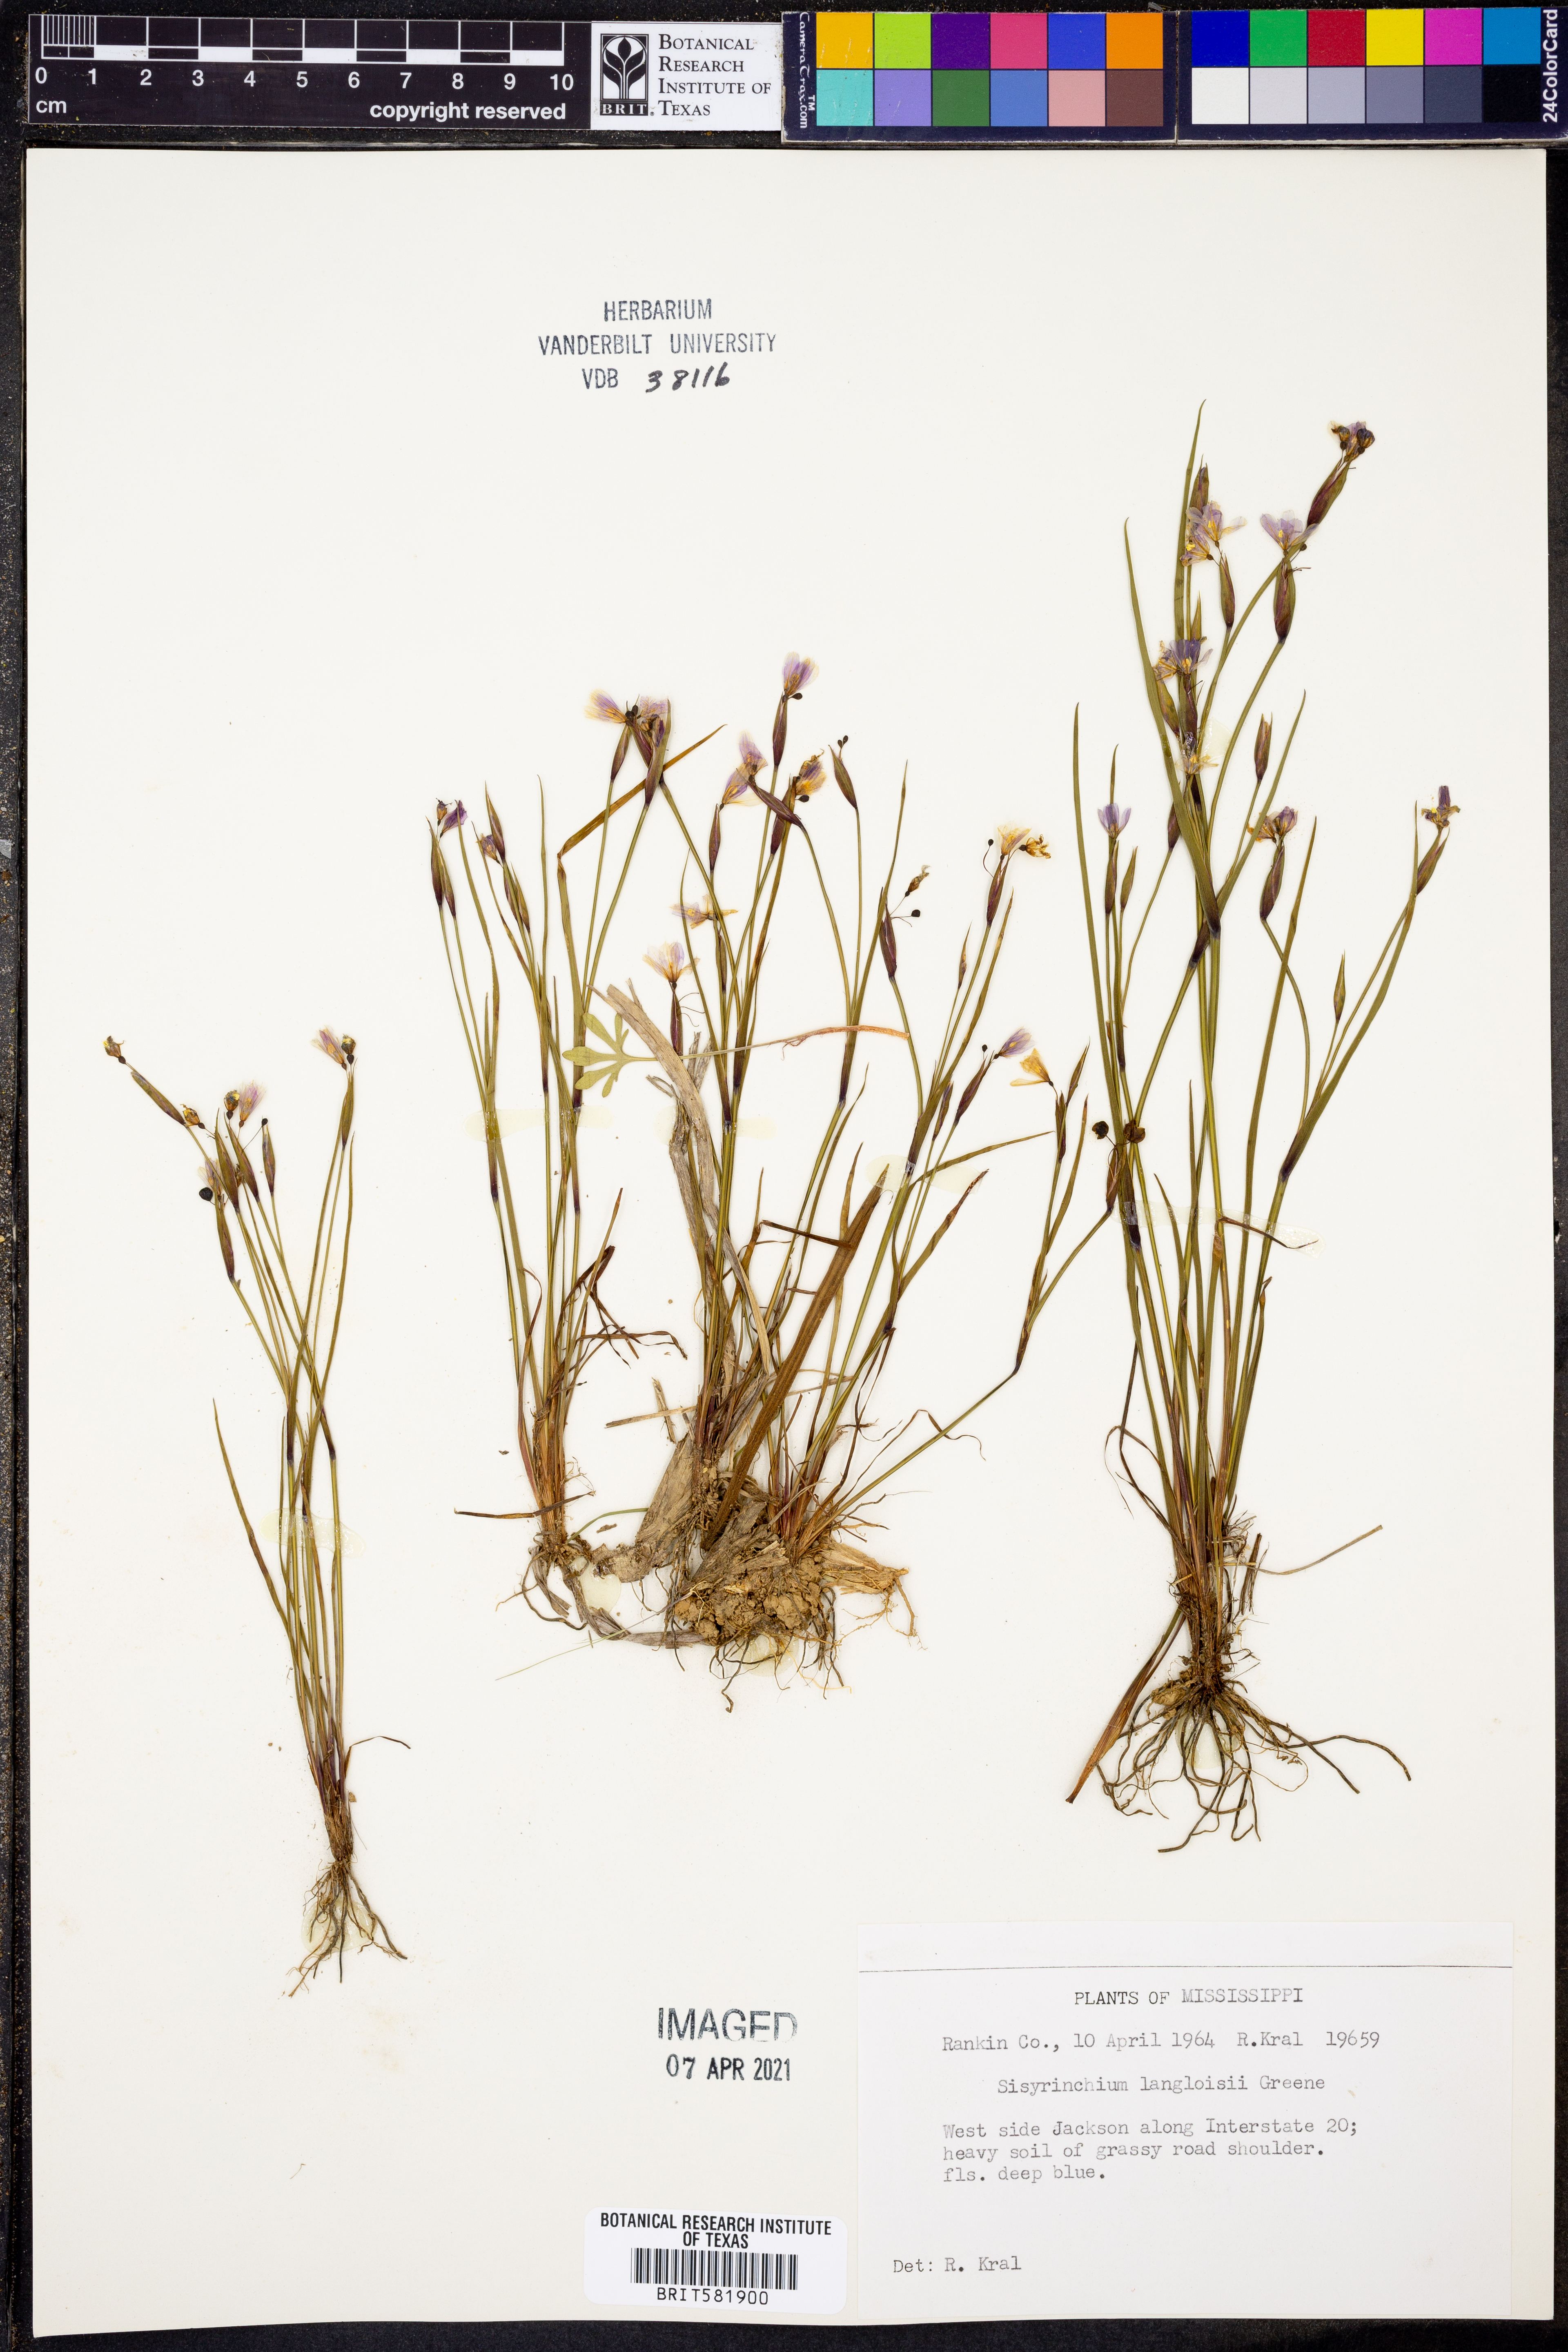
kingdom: Plantae
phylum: Tracheophyta
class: Liliopsida
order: Asparagales
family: Iridaceae
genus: Sisyrinchium
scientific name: Sisyrinchium langloisii
